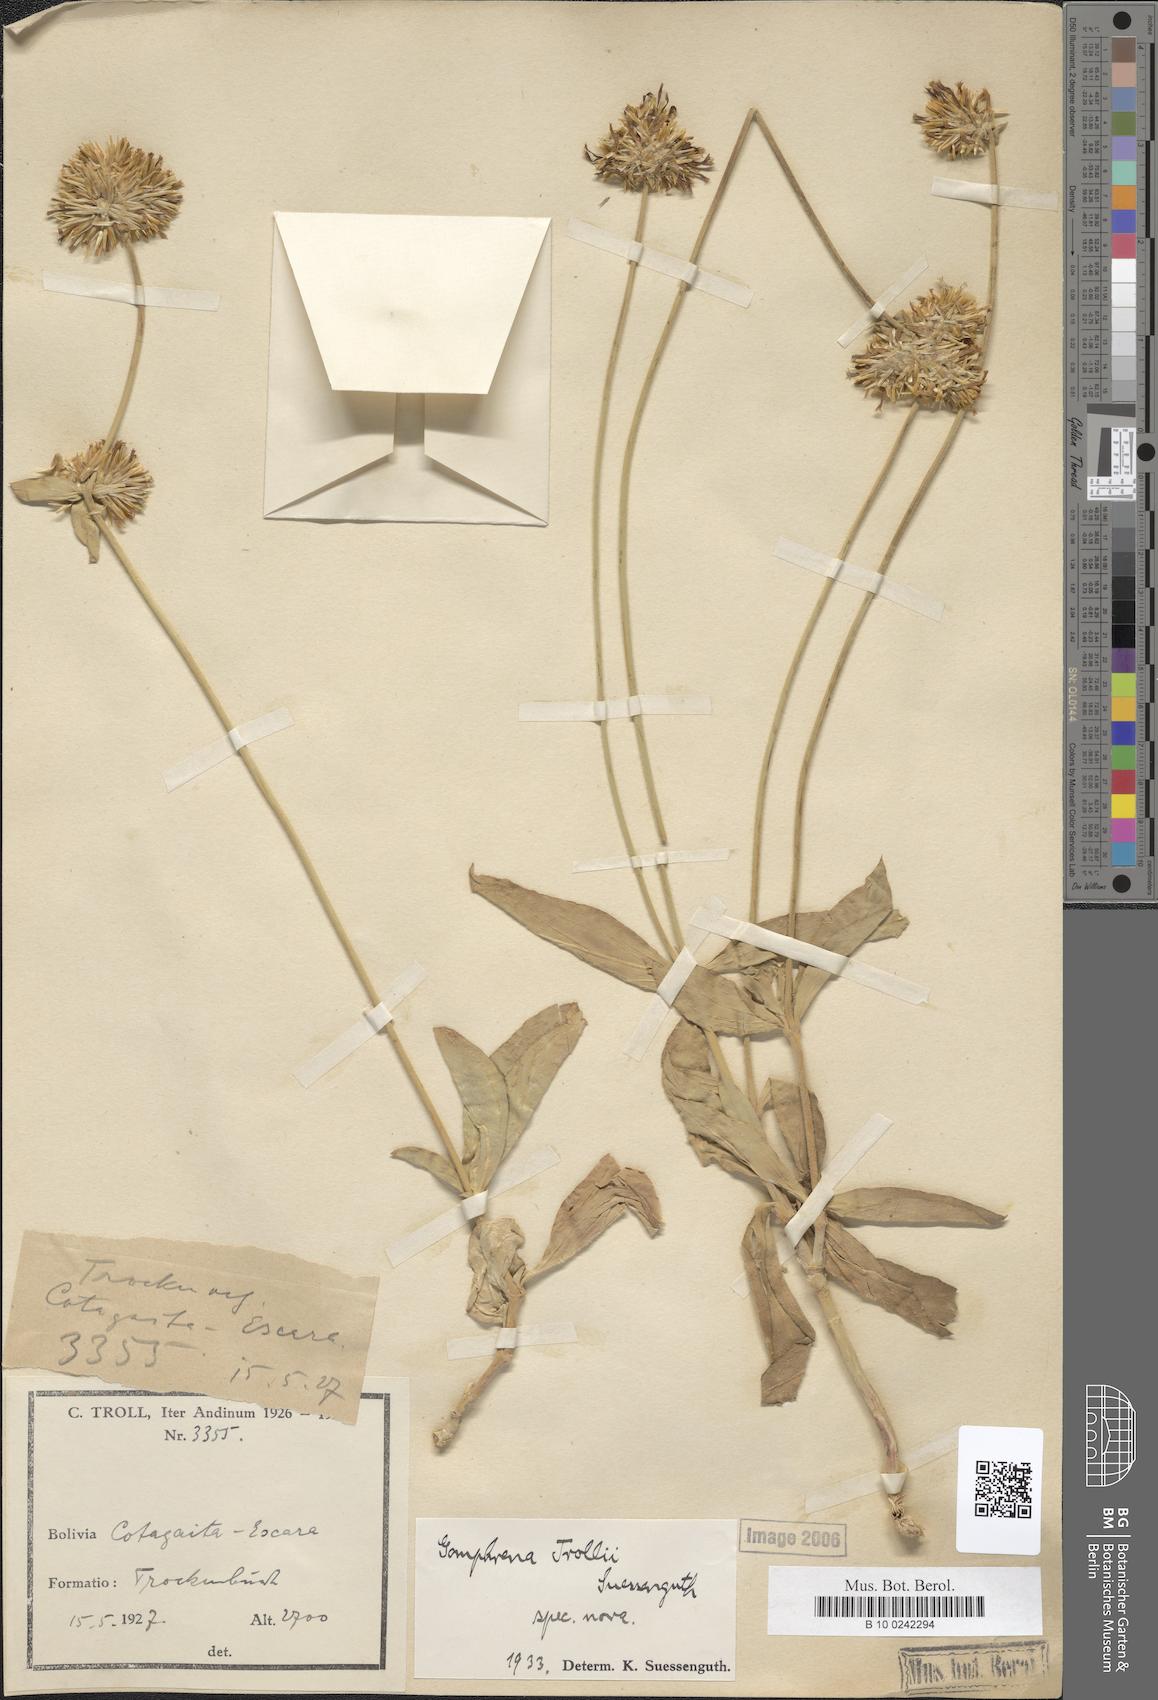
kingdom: Plantae
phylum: Tracheophyta
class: Magnoliopsida
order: Caryophyllales
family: Amaranthaceae
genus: Gomphrena
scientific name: Gomphrena trollii
